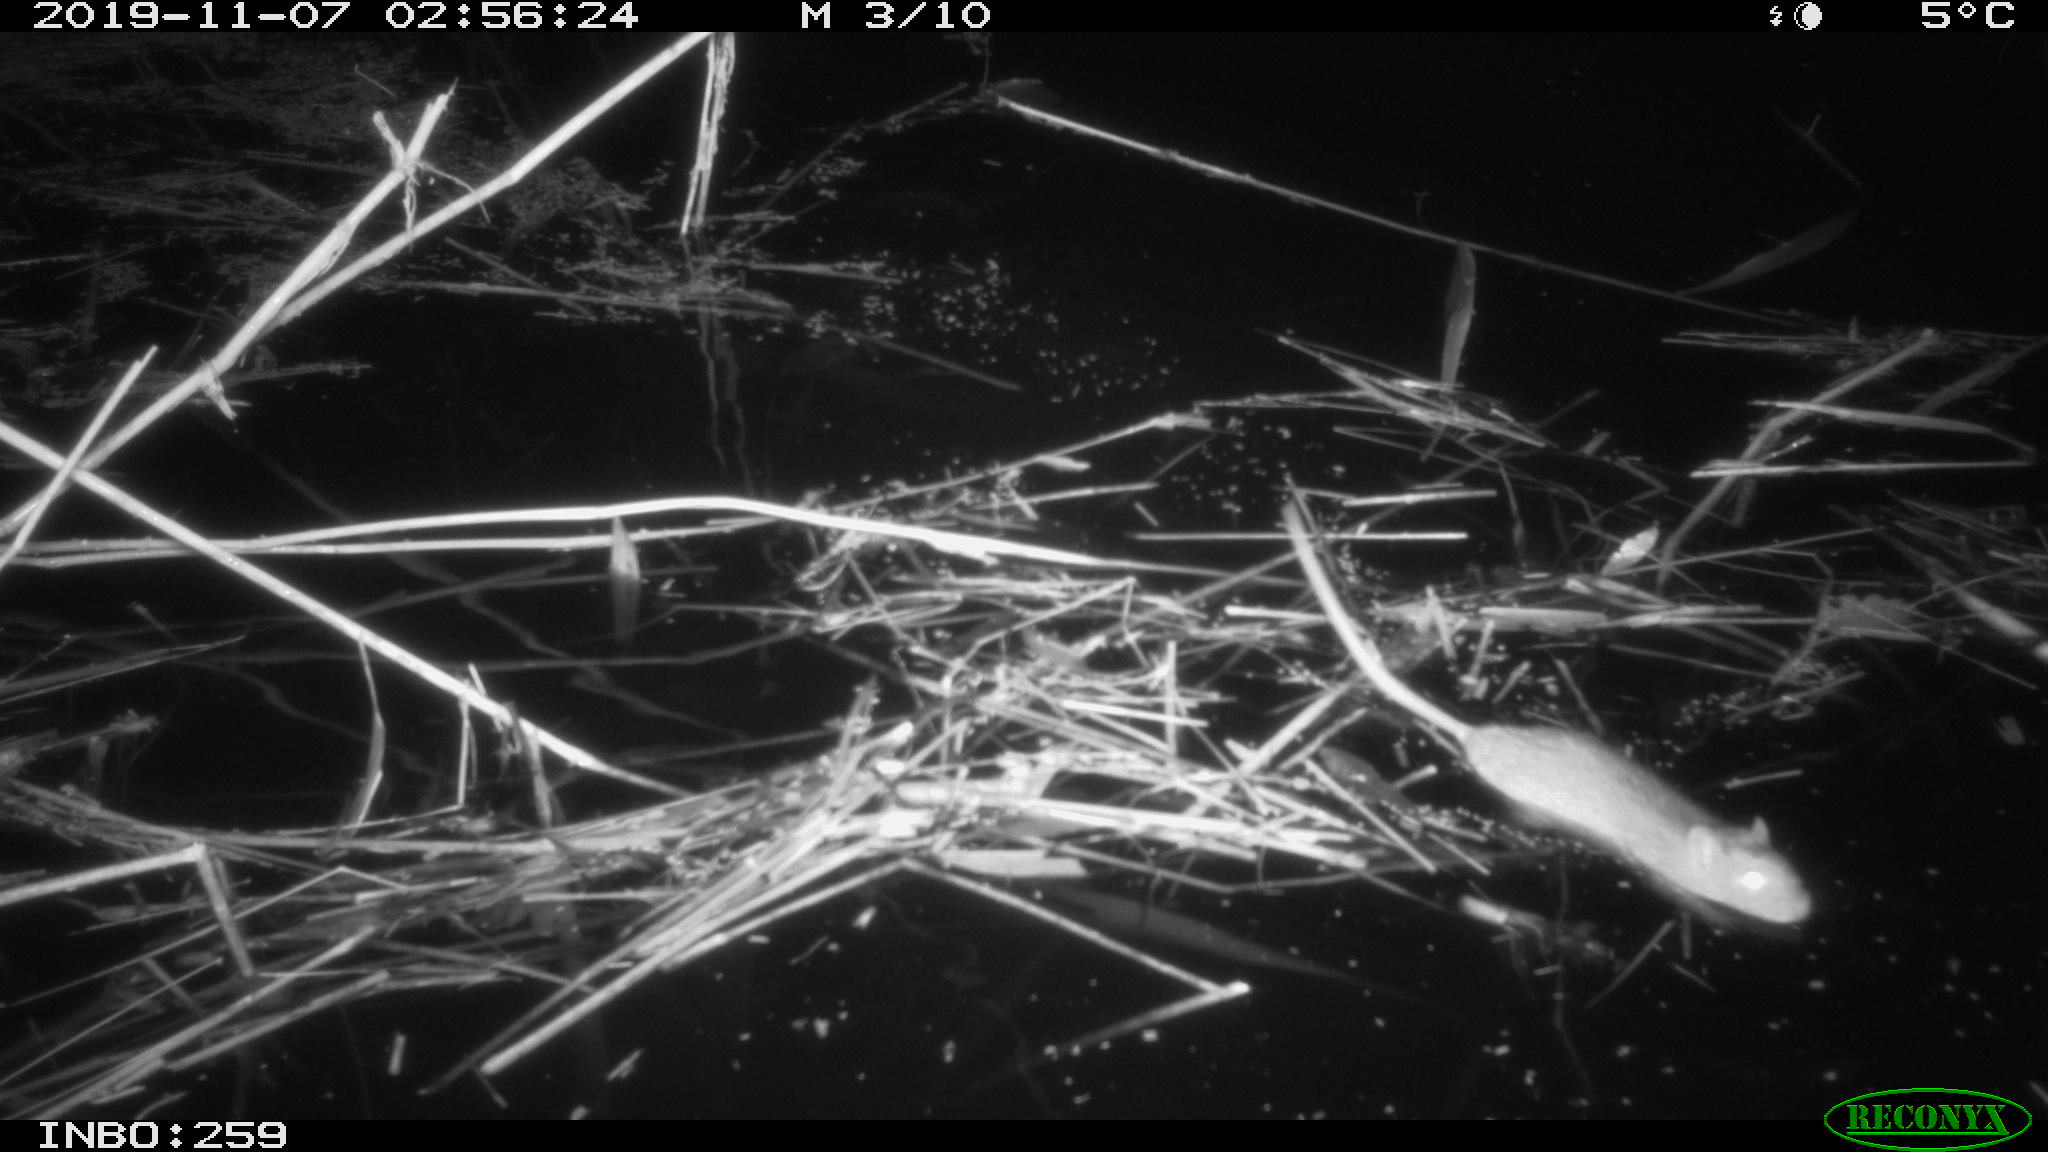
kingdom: Animalia
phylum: Chordata
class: Mammalia
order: Rodentia
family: Muridae
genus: Rattus
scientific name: Rattus norvegicus
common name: Brown rat
